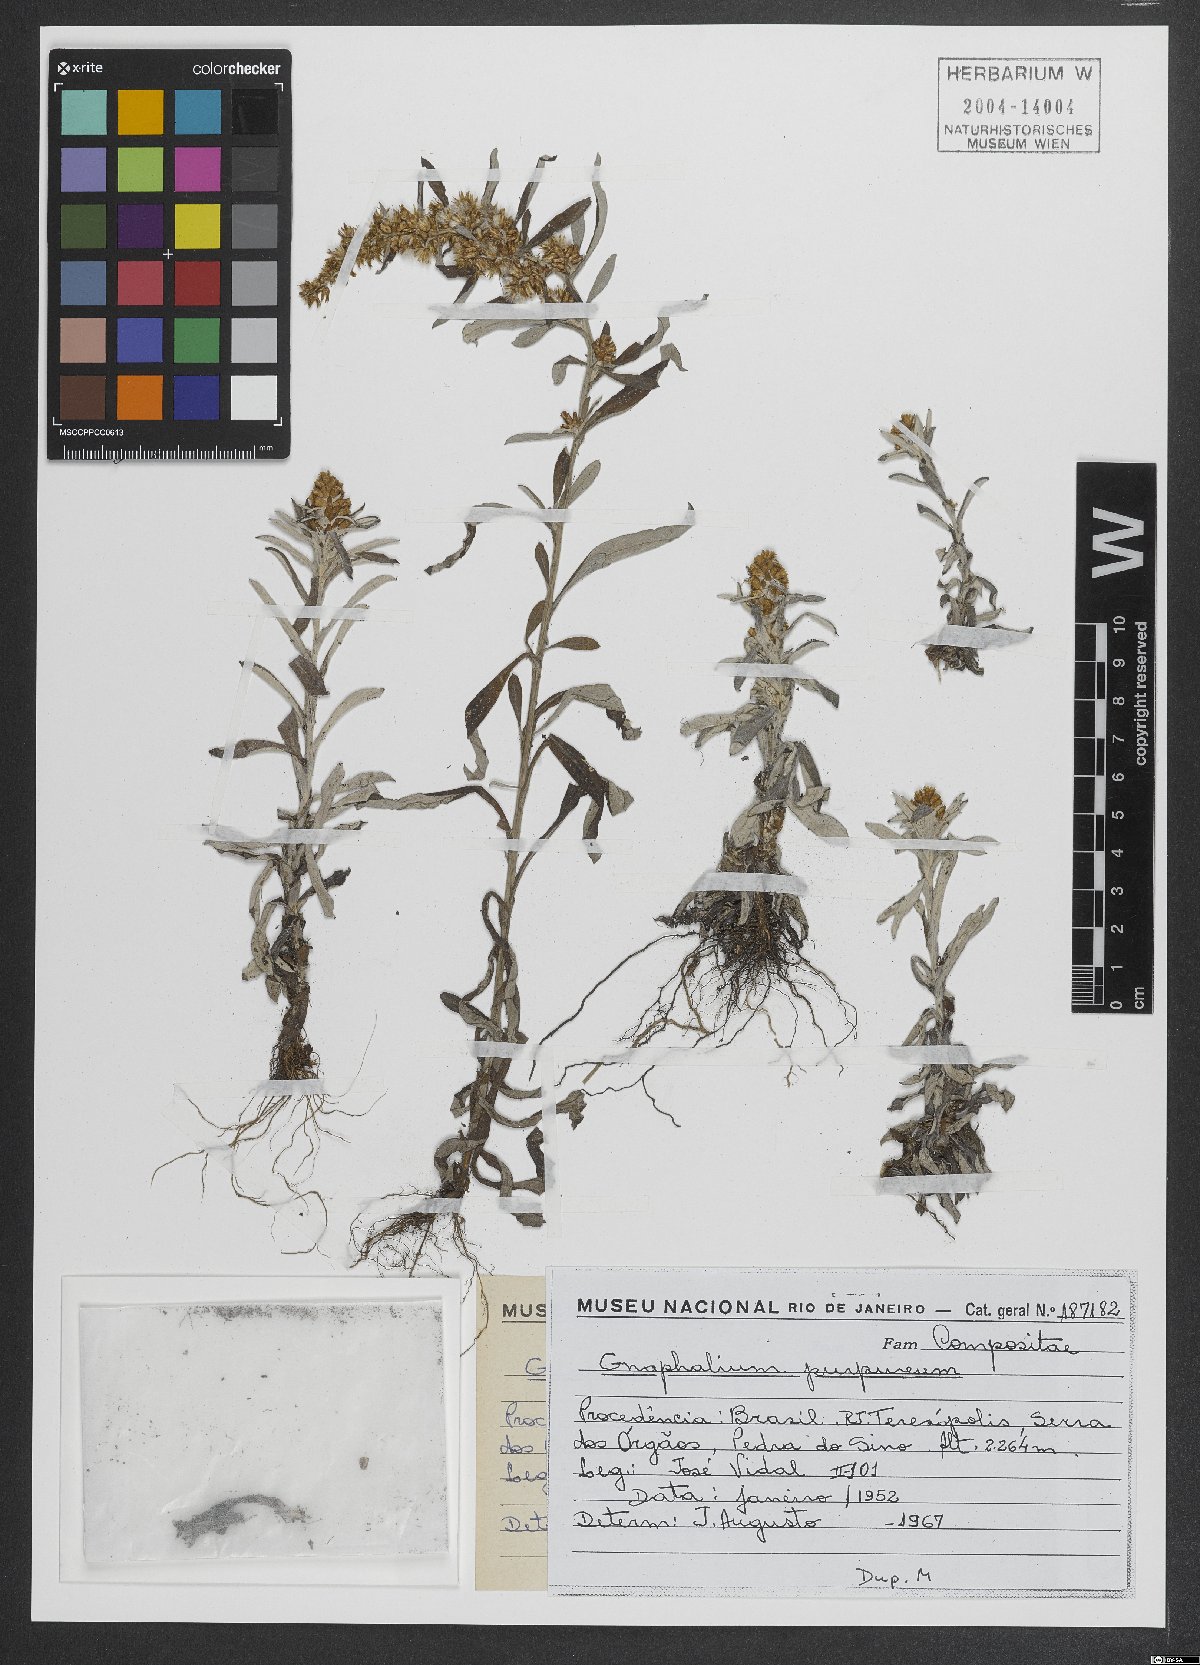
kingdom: Plantae
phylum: Tracheophyta
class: Magnoliopsida
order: Asterales
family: Asteraceae
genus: Gamochaeta
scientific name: Gamochaeta purpurea
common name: Purple cudweed
